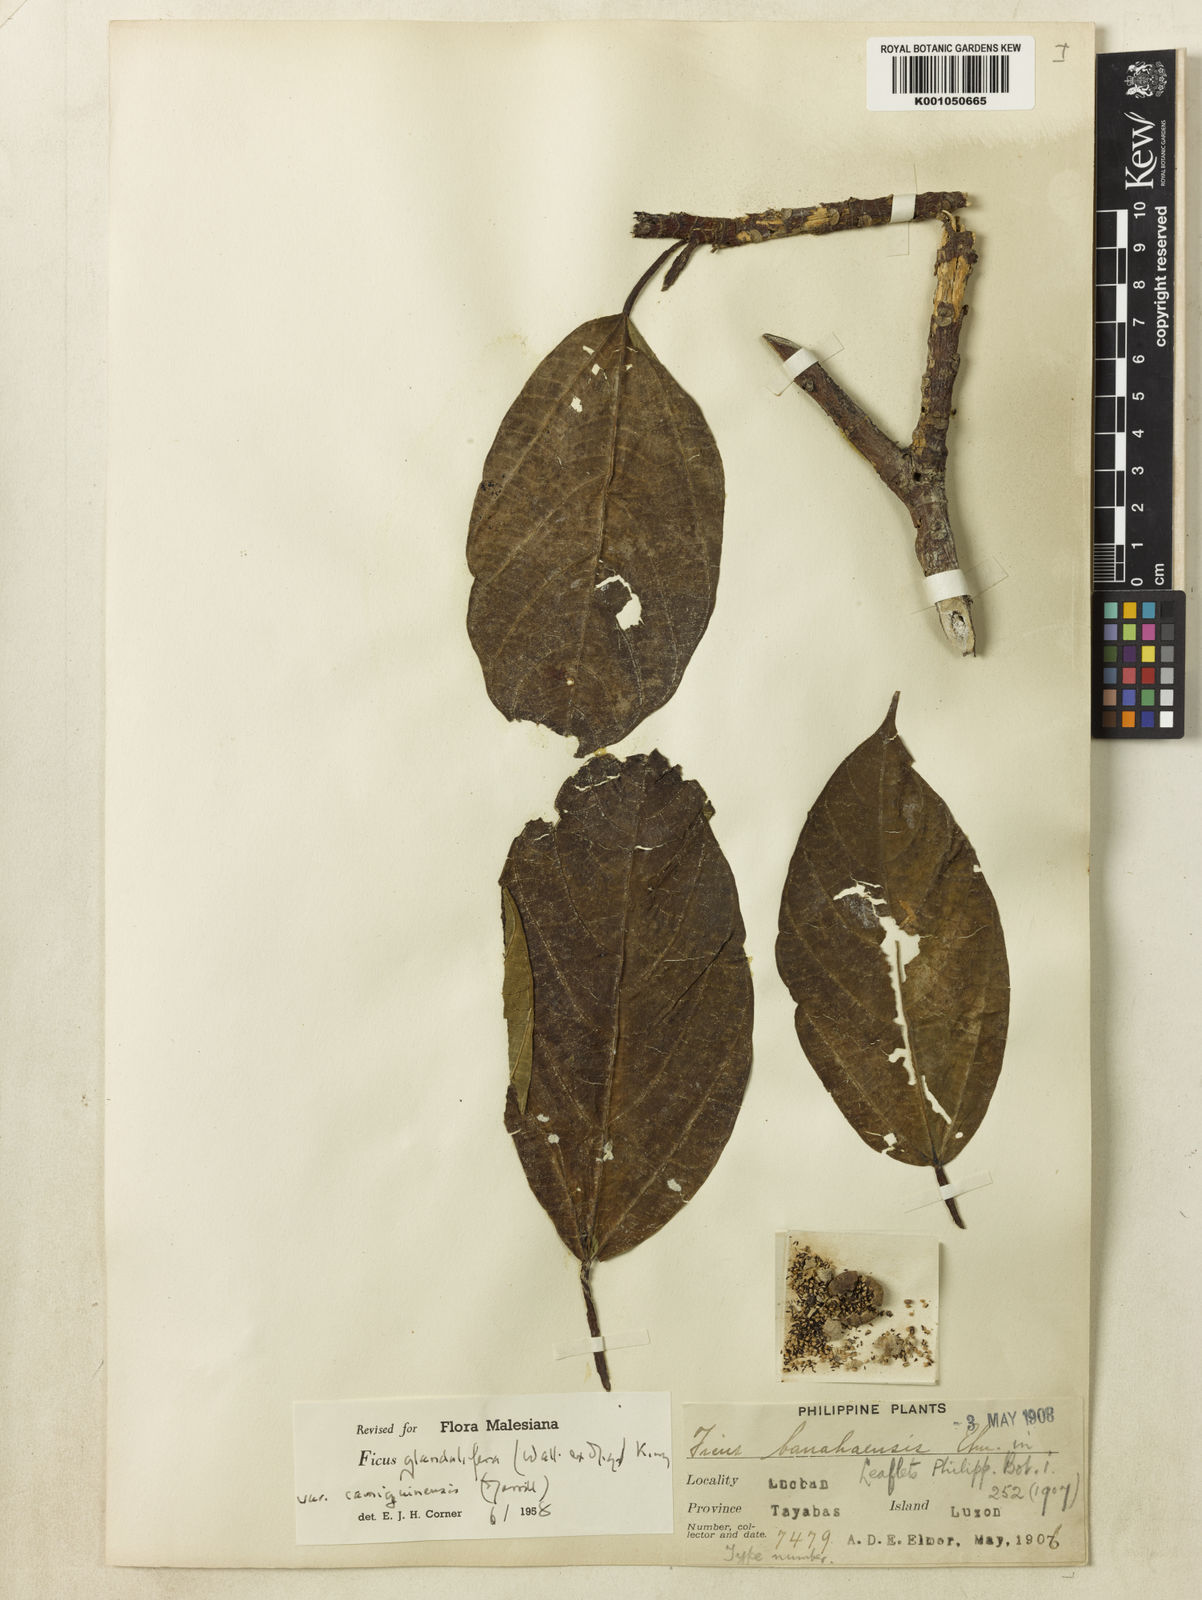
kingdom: Plantae
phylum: Tracheophyta
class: Magnoliopsida
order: Rosales
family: Moraceae
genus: Ficus
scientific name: Ficus
